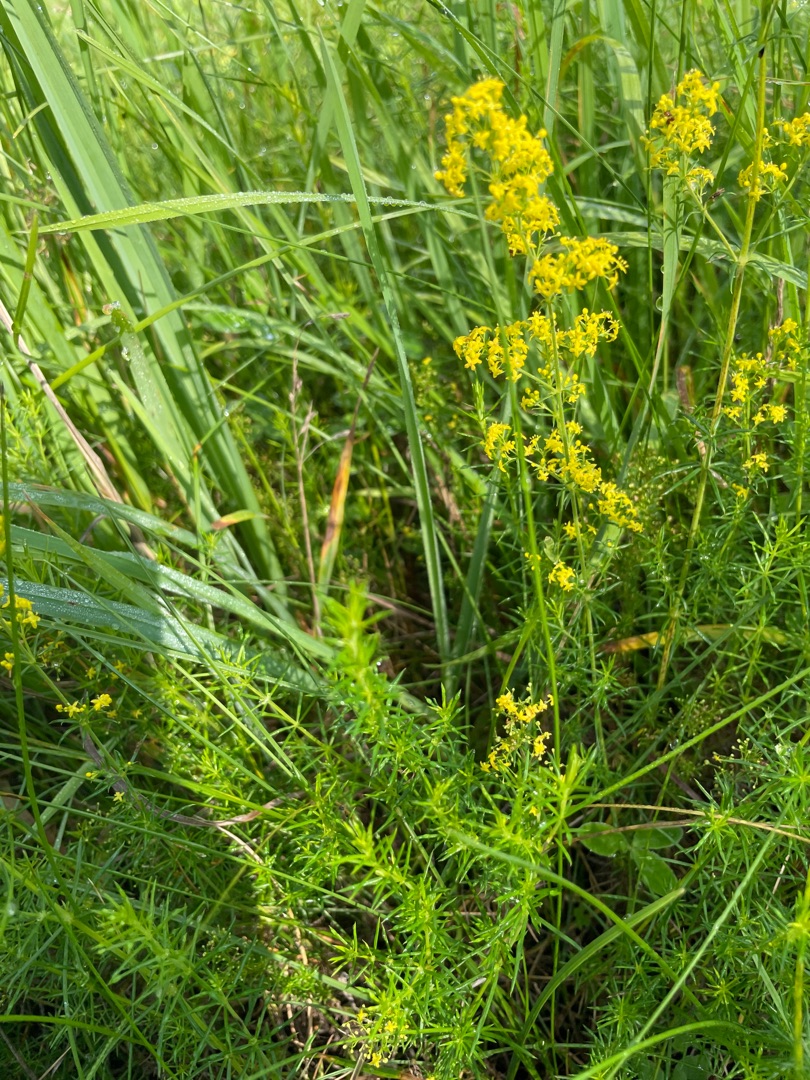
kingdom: Plantae
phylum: Tracheophyta
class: Magnoliopsida
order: Gentianales
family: Rubiaceae
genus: Galium
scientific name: Galium verum
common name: Gul snerre
